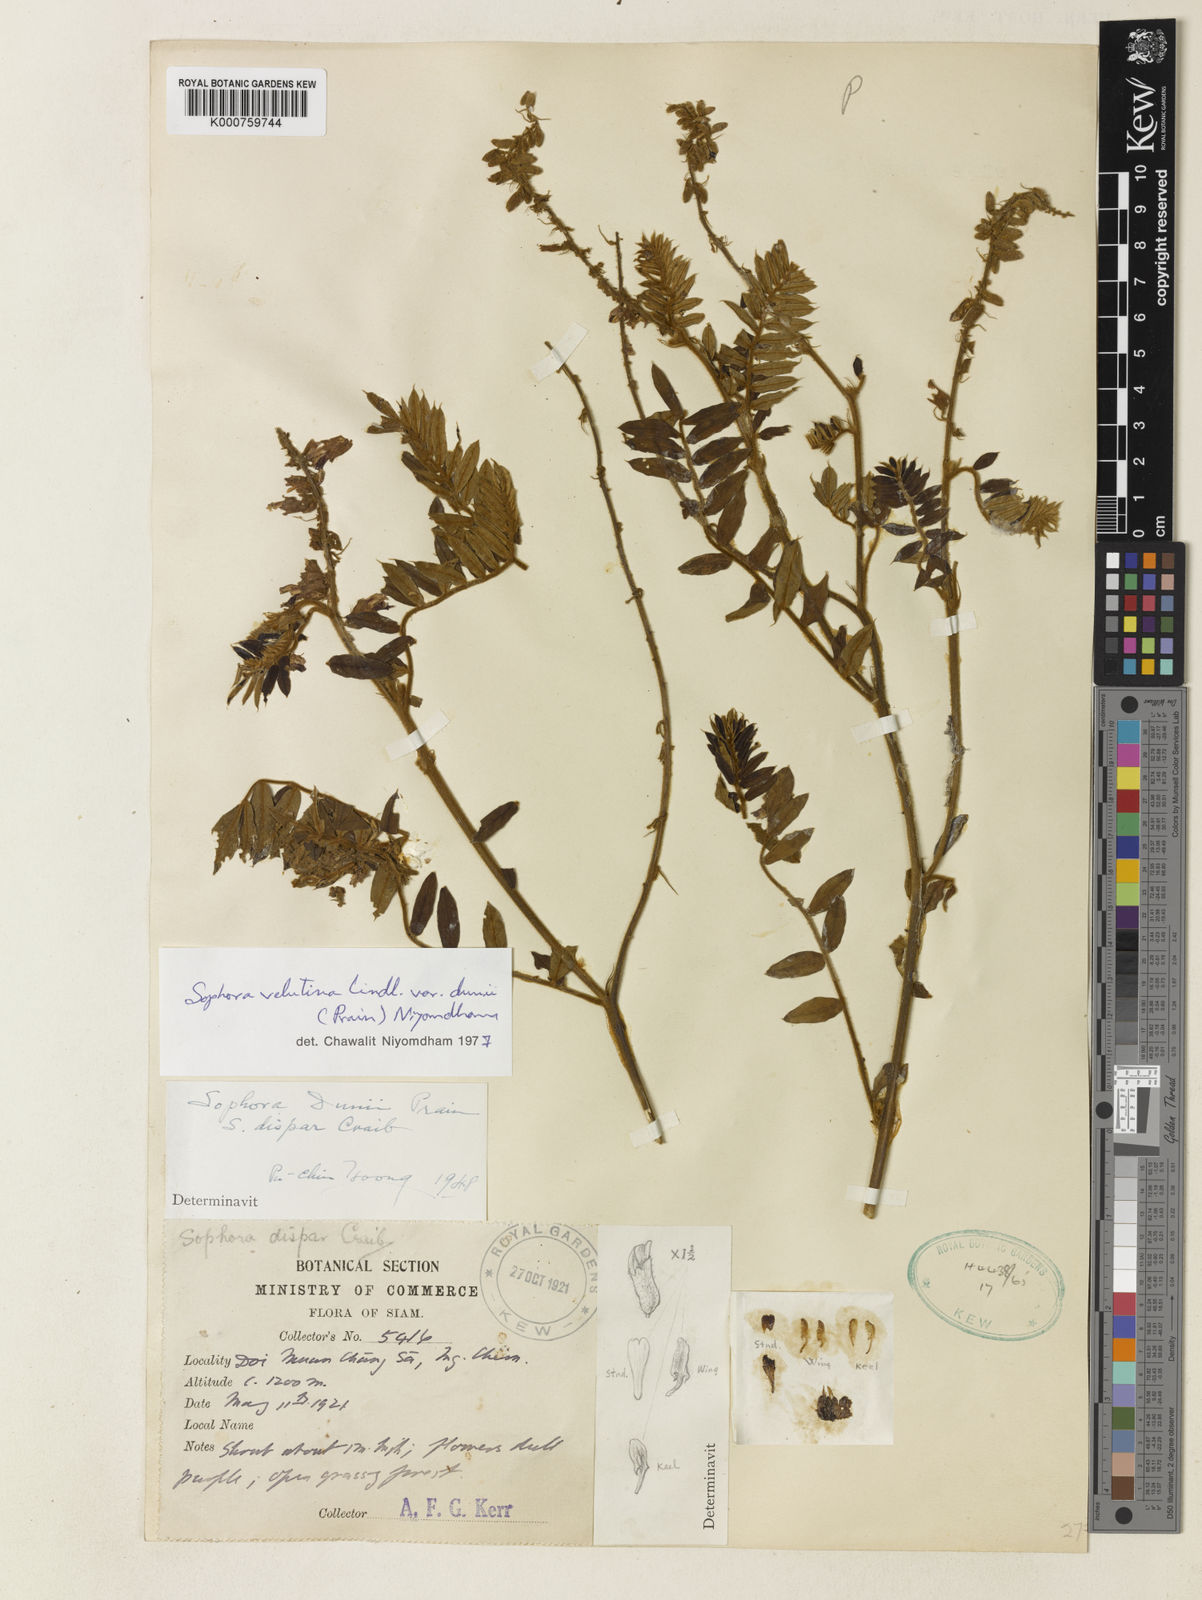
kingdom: Plantae
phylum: Tracheophyta
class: Magnoliopsida
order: Fabales
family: Fabaceae
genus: Sophora
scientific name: Sophora dunii
